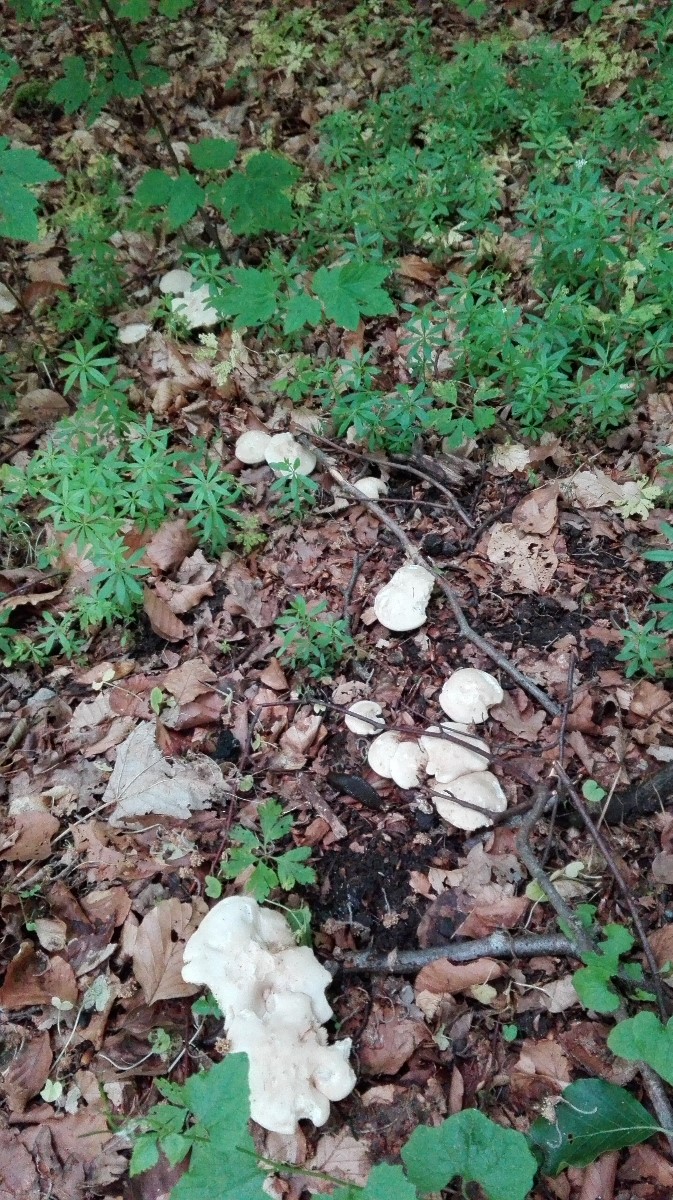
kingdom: Fungi
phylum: Basidiomycota
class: Agaricomycetes
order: Agaricales
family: Lyophyllaceae
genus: Calocybe
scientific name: Calocybe gambosa
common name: vårmusseron
